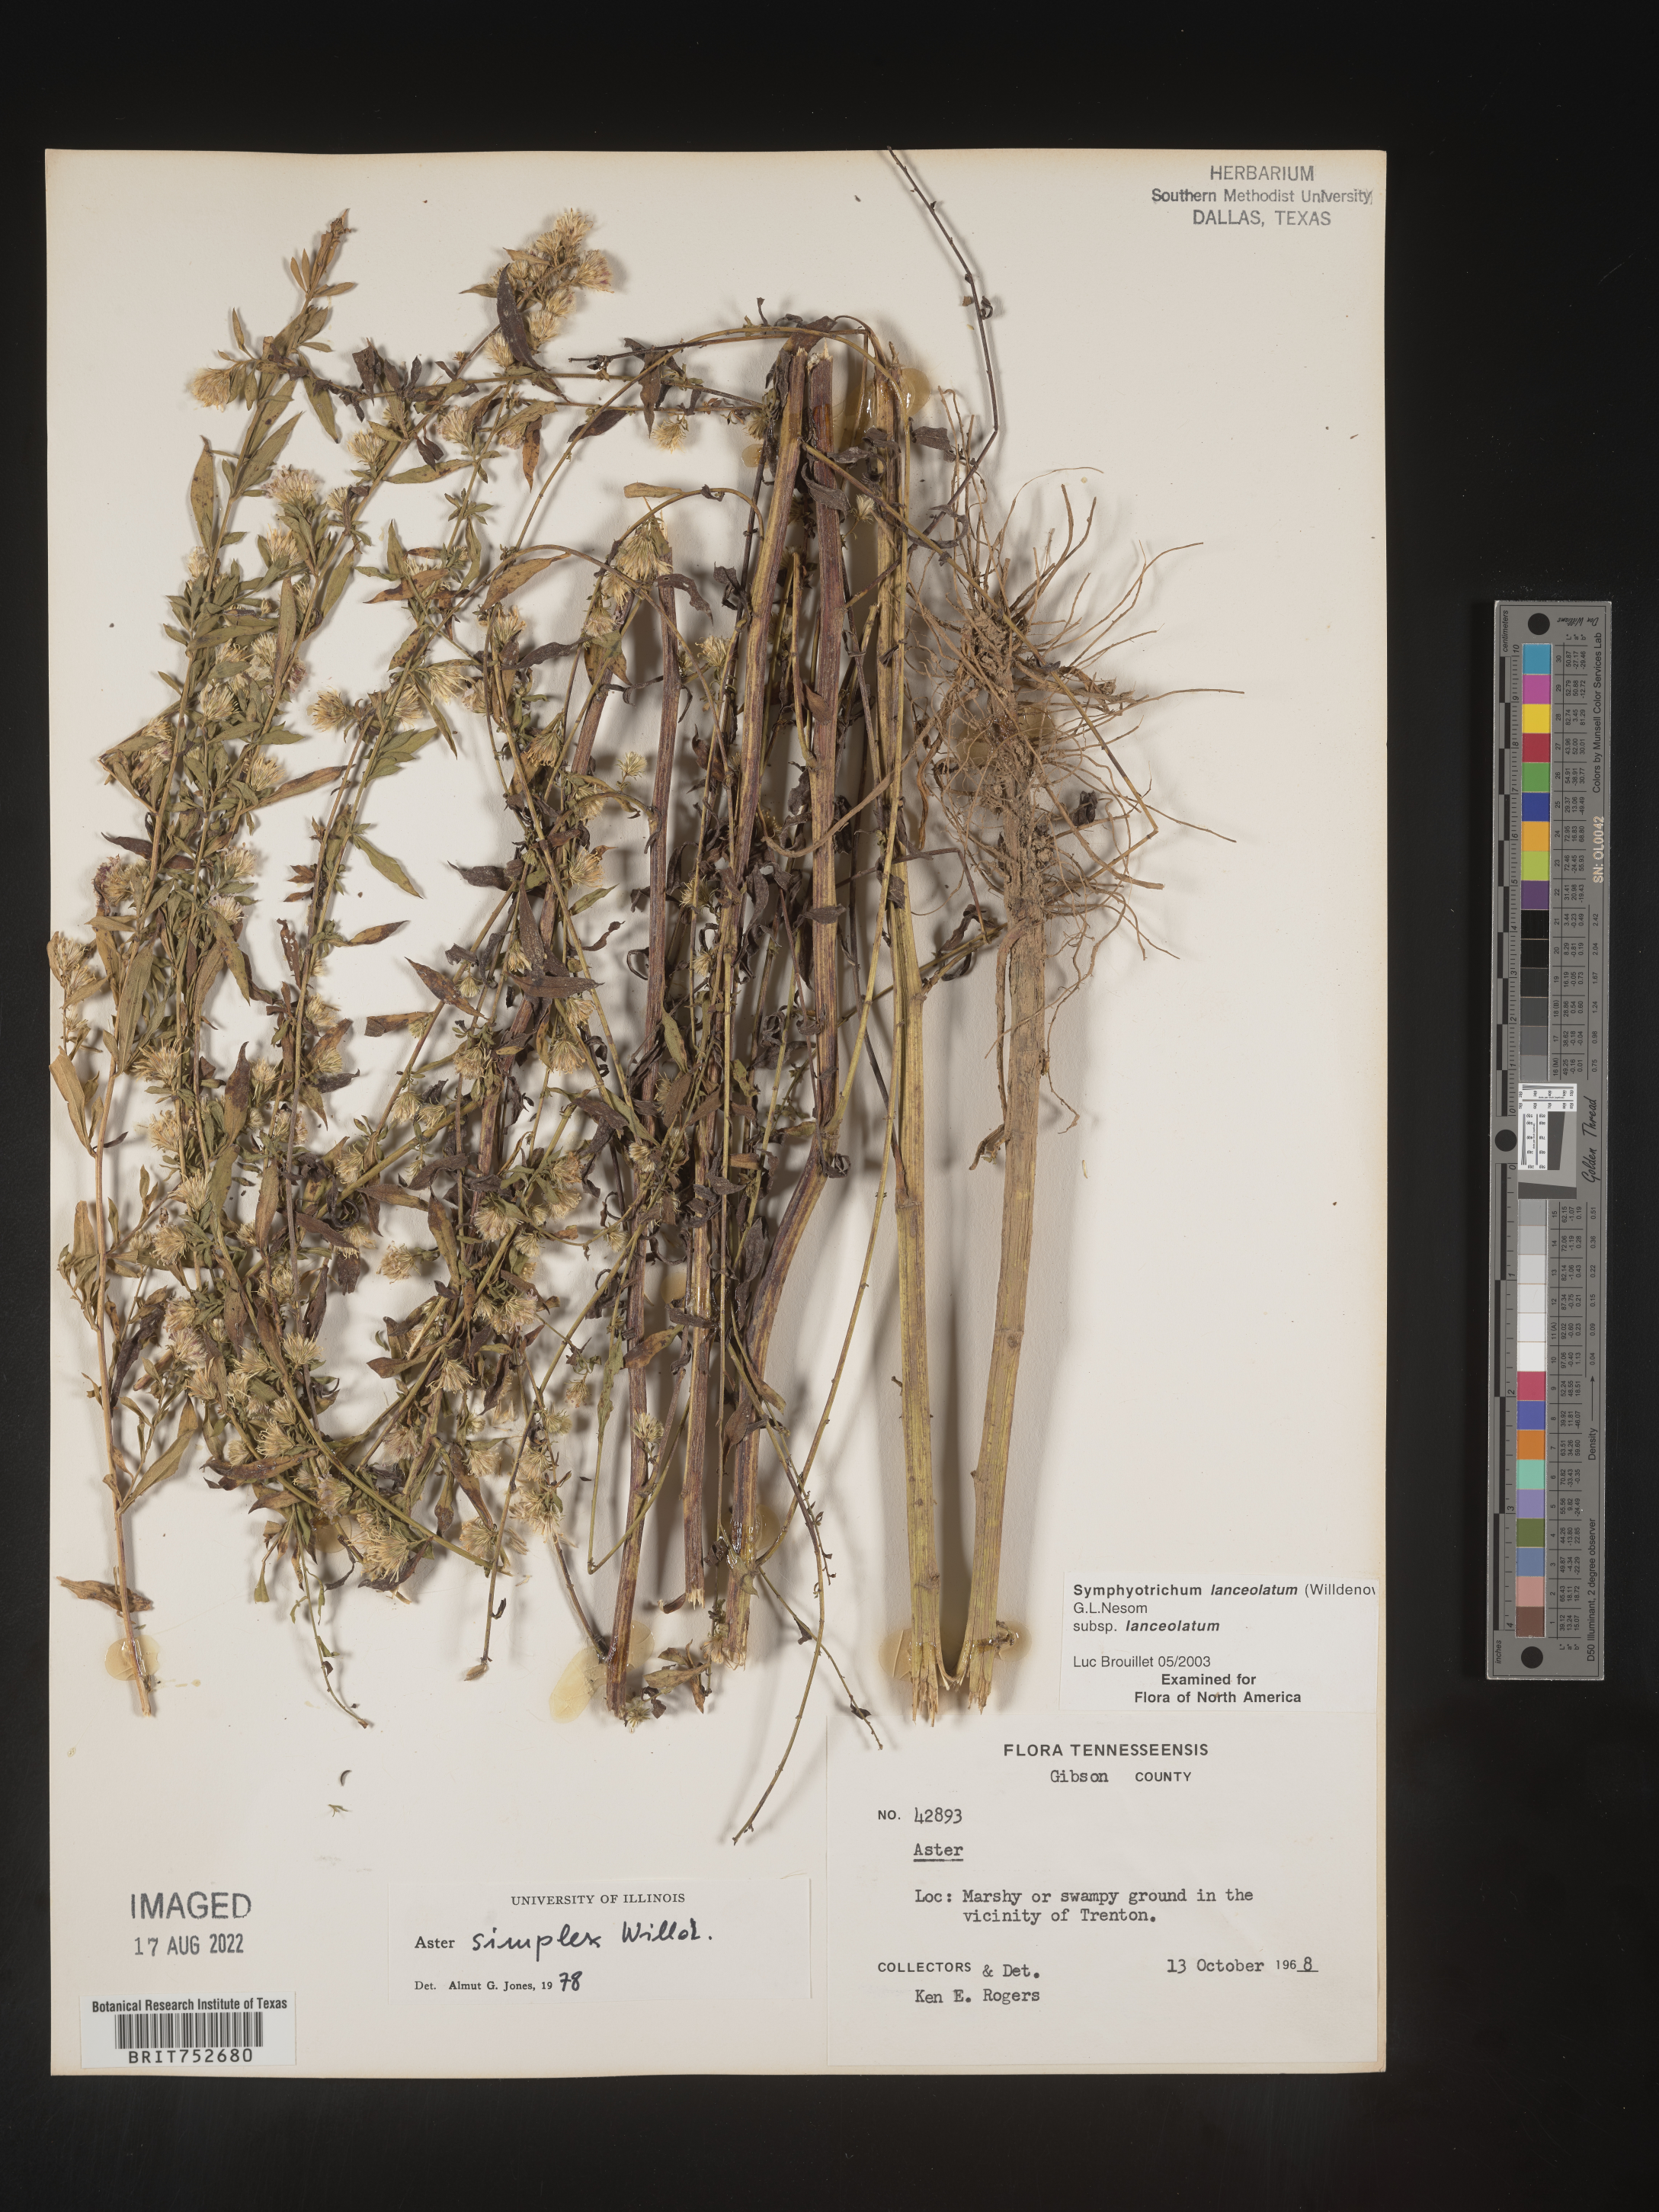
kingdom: Plantae
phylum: Tracheophyta
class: Magnoliopsida
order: Asterales
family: Asteraceae
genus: Symphyotrichum
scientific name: Symphyotrichum lanceolatum
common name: Panicled aster
